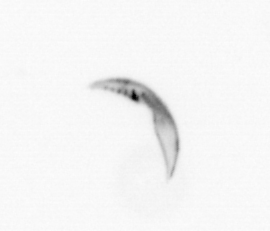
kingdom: Chromista
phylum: Ochrophyta
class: Bacillariophyceae
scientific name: Bacillariophyceae
